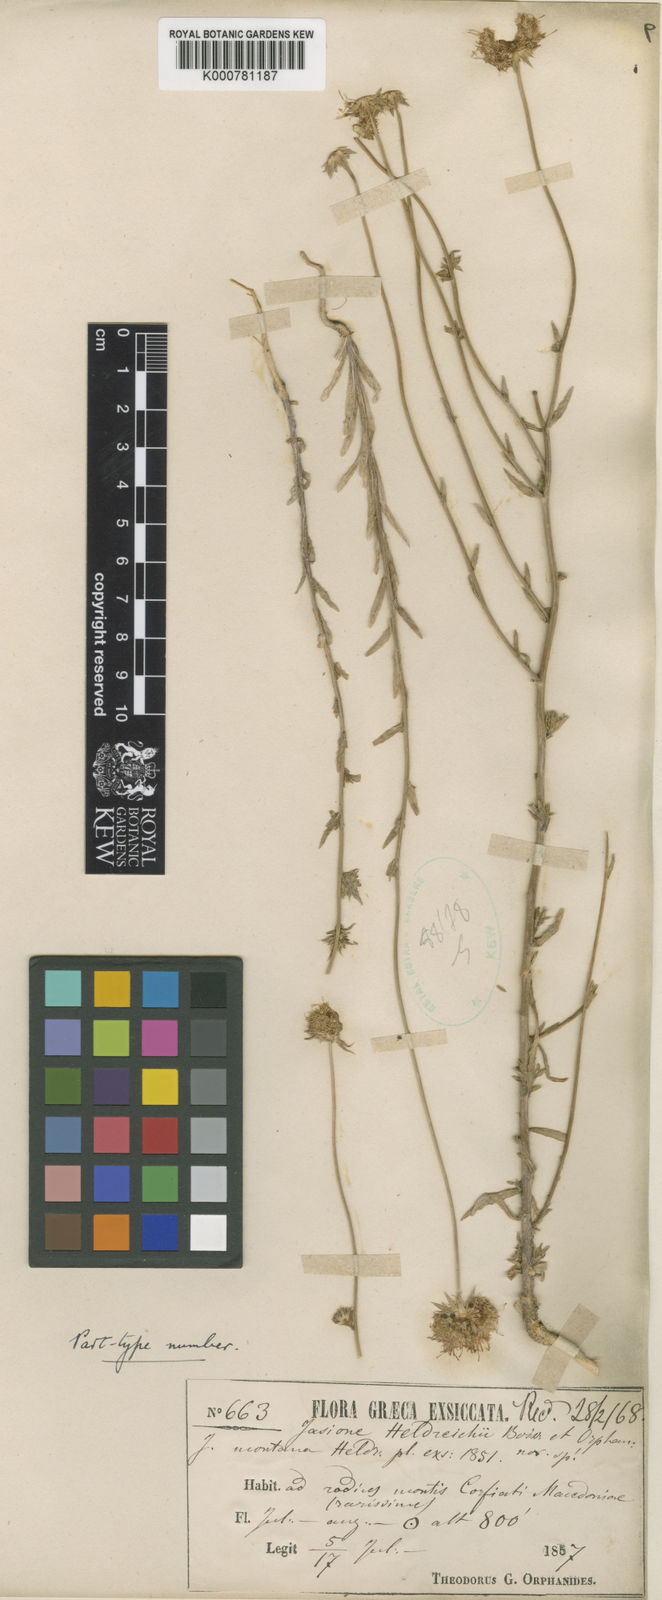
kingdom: Plantae
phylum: Tracheophyta
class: Magnoliopsida
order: Asterales
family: Campanulaceae
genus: Jasione
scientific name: Jasione
